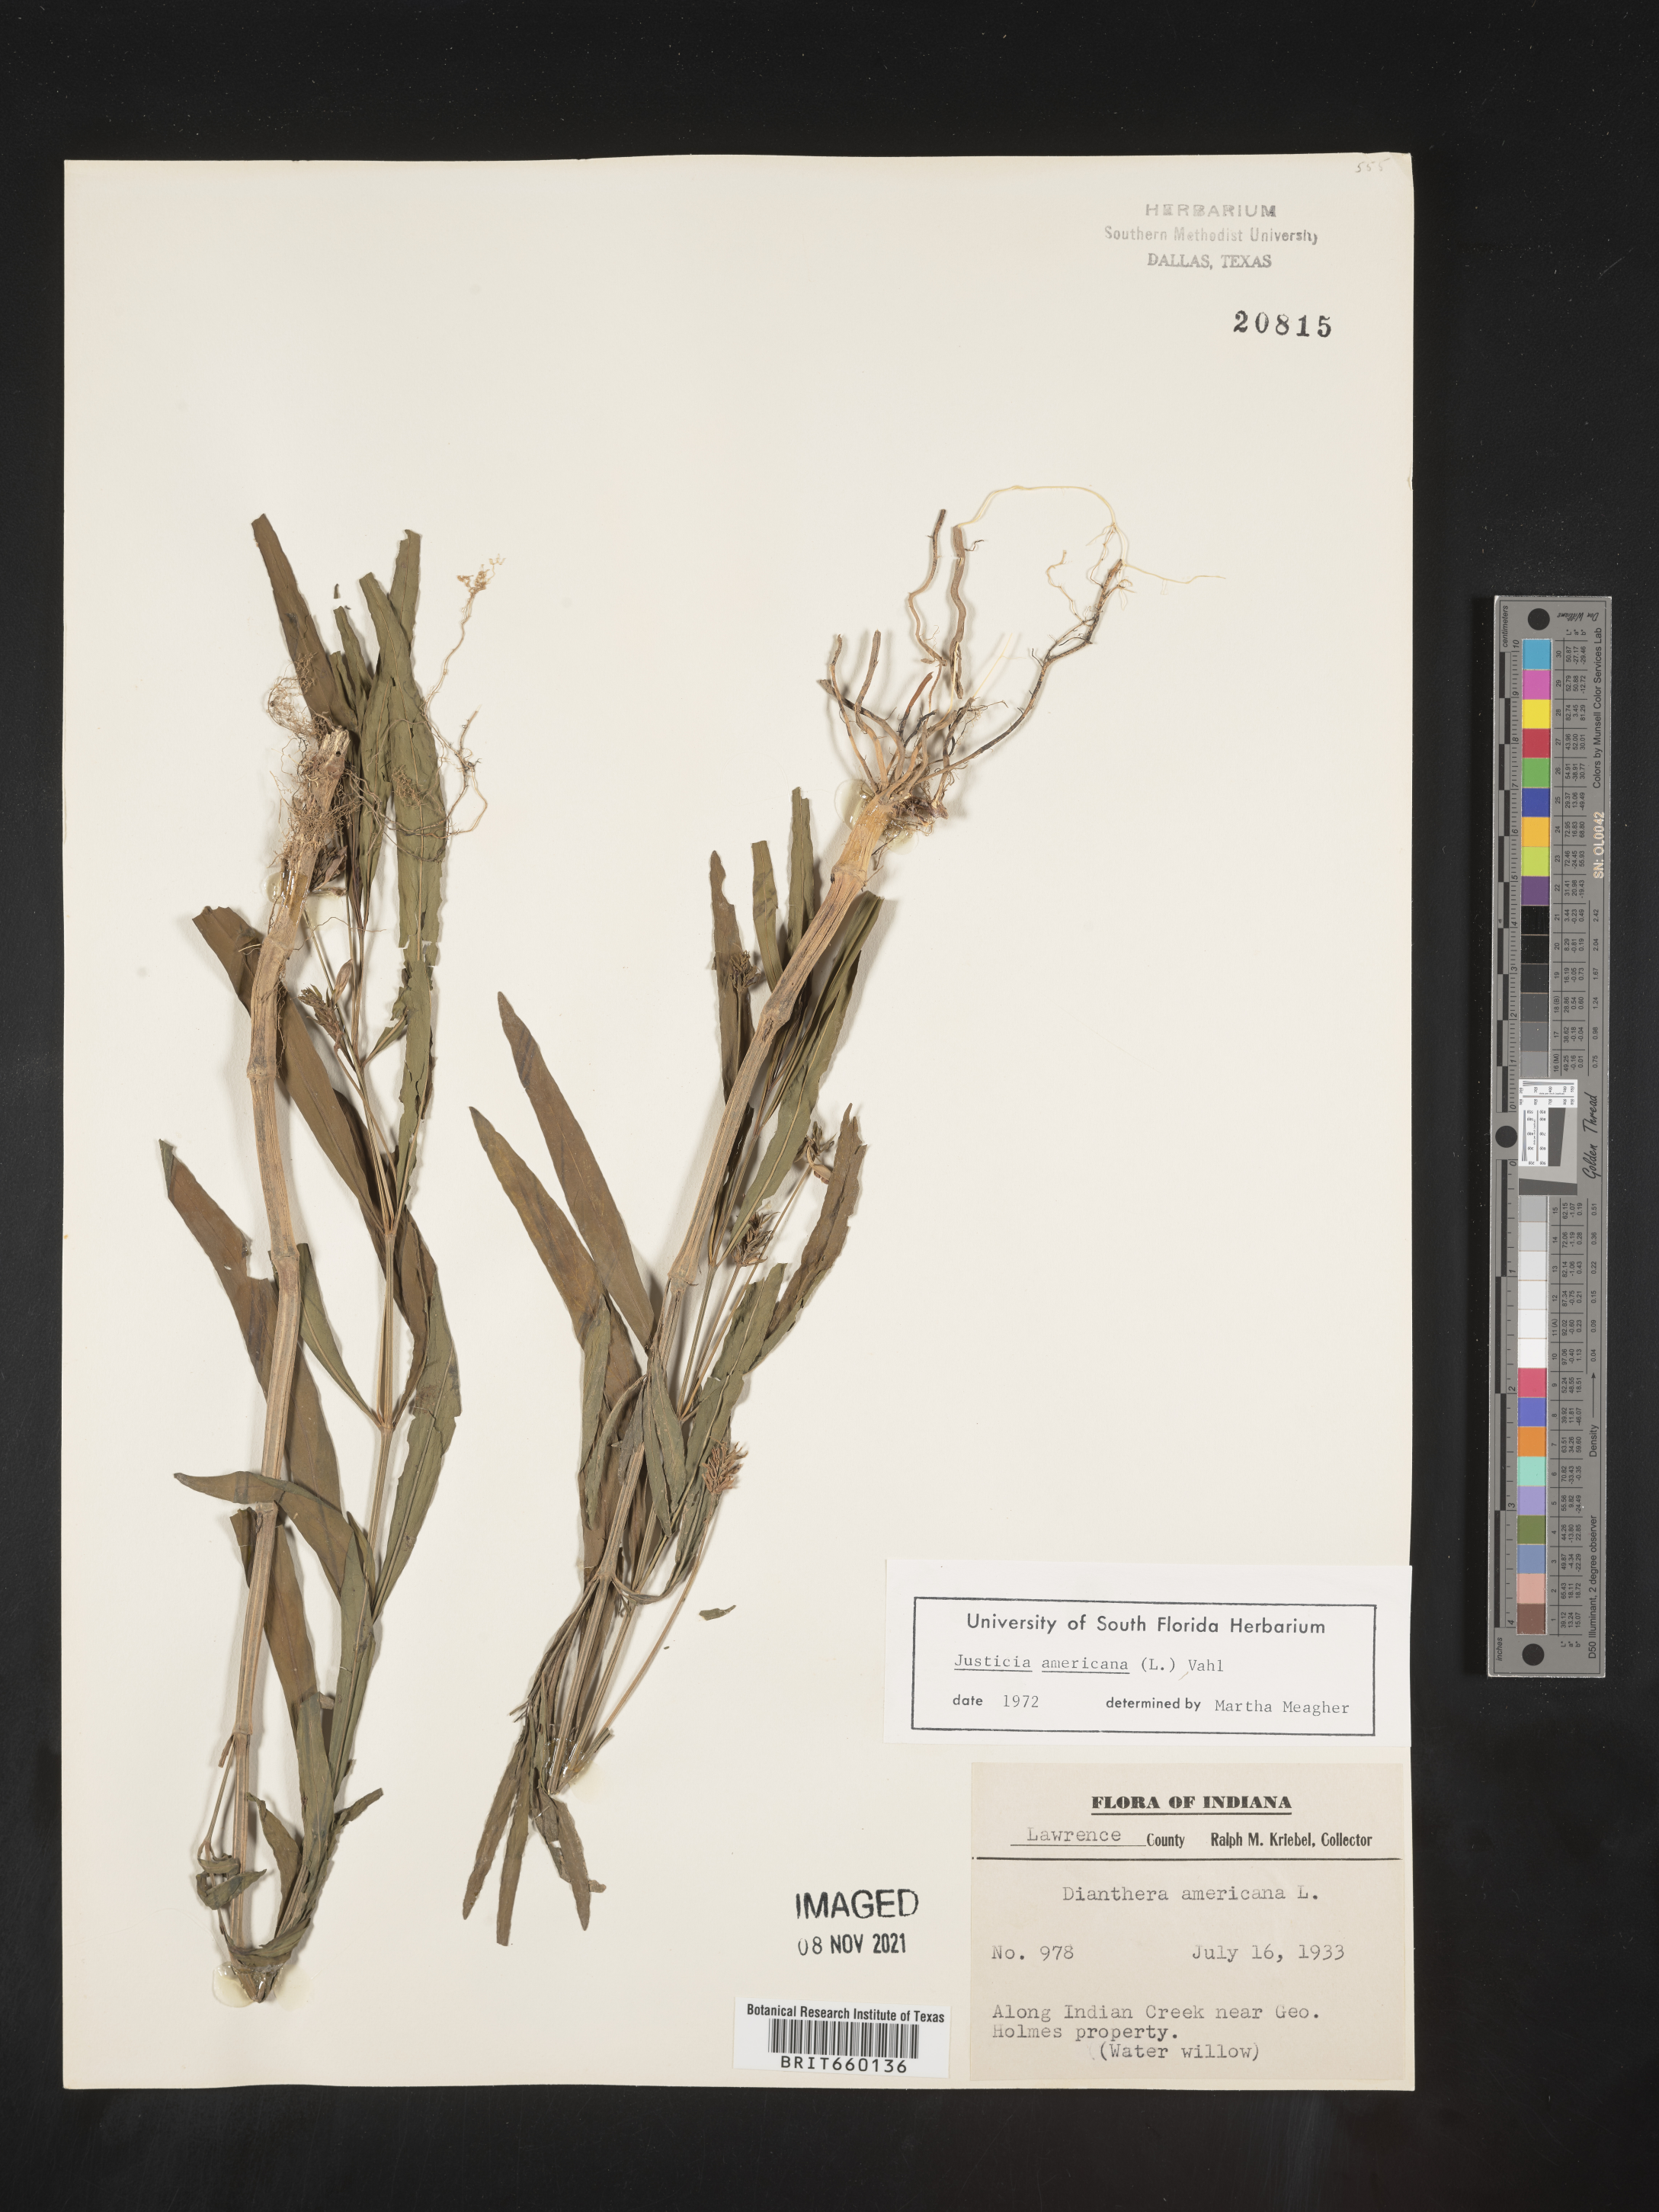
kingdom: Plantae
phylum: Tracheophyta
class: Magnoliopsida
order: Lamiales
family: Acanthaceae
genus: Dianthera
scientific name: Dianthera americana
